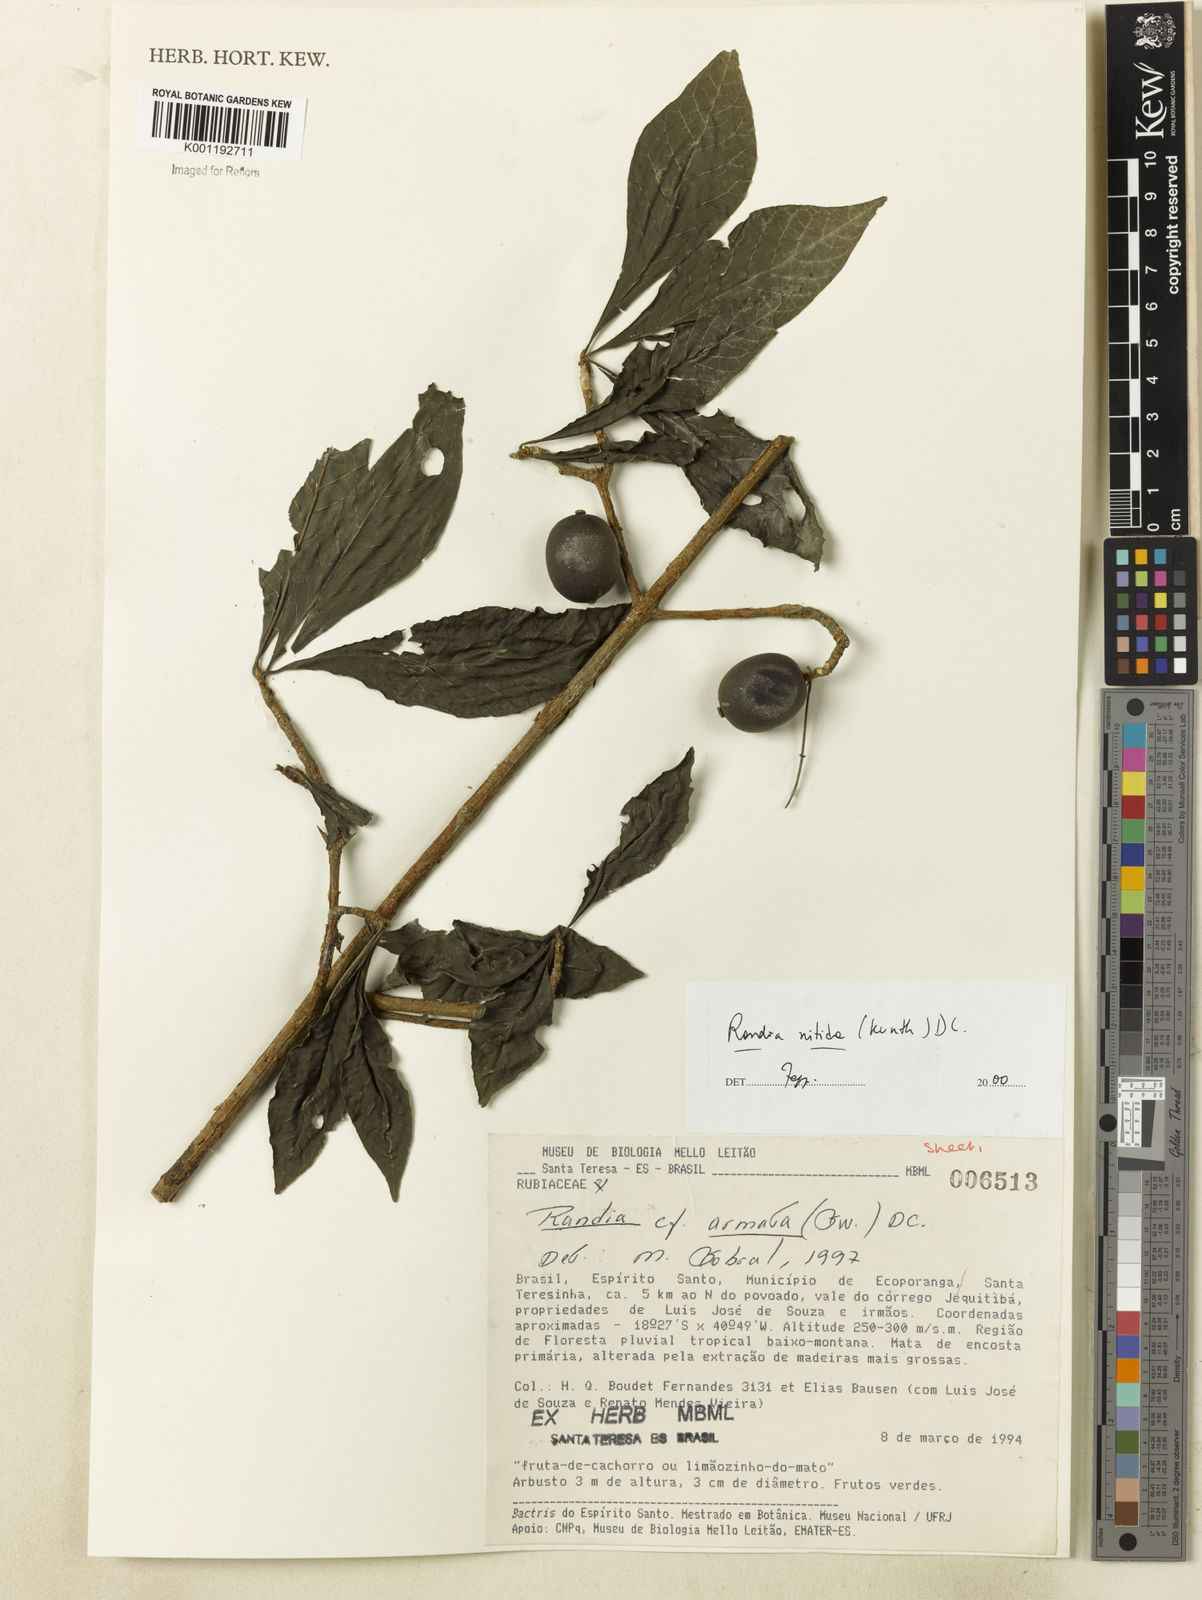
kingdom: Plantae
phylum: Tracheophyta
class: Magnoliopsida
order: Gentianales
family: Rubiaceae
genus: Randia
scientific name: Randia nitida
